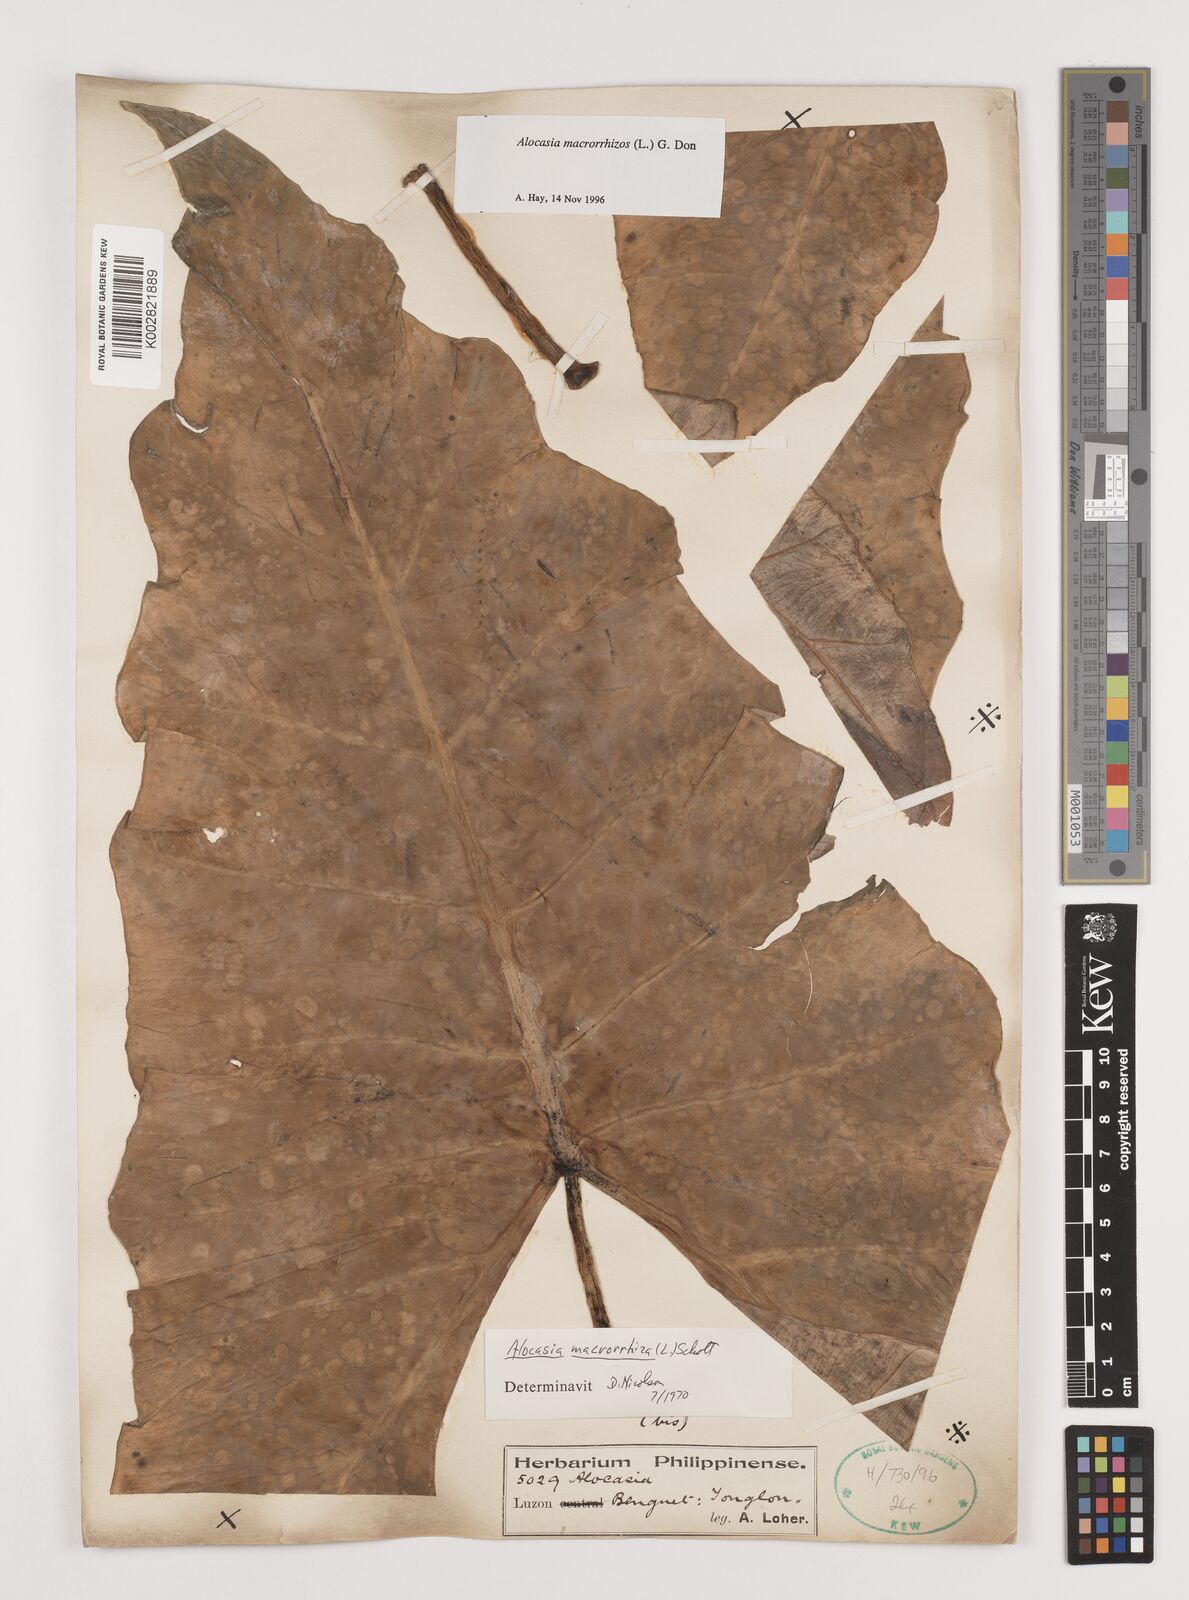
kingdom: Plantae
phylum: Tracheophyta
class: Liliopsida
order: Alismatales
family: Araceae
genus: Alocasia
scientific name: Alocasia macrorrhizos
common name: Giant taro
